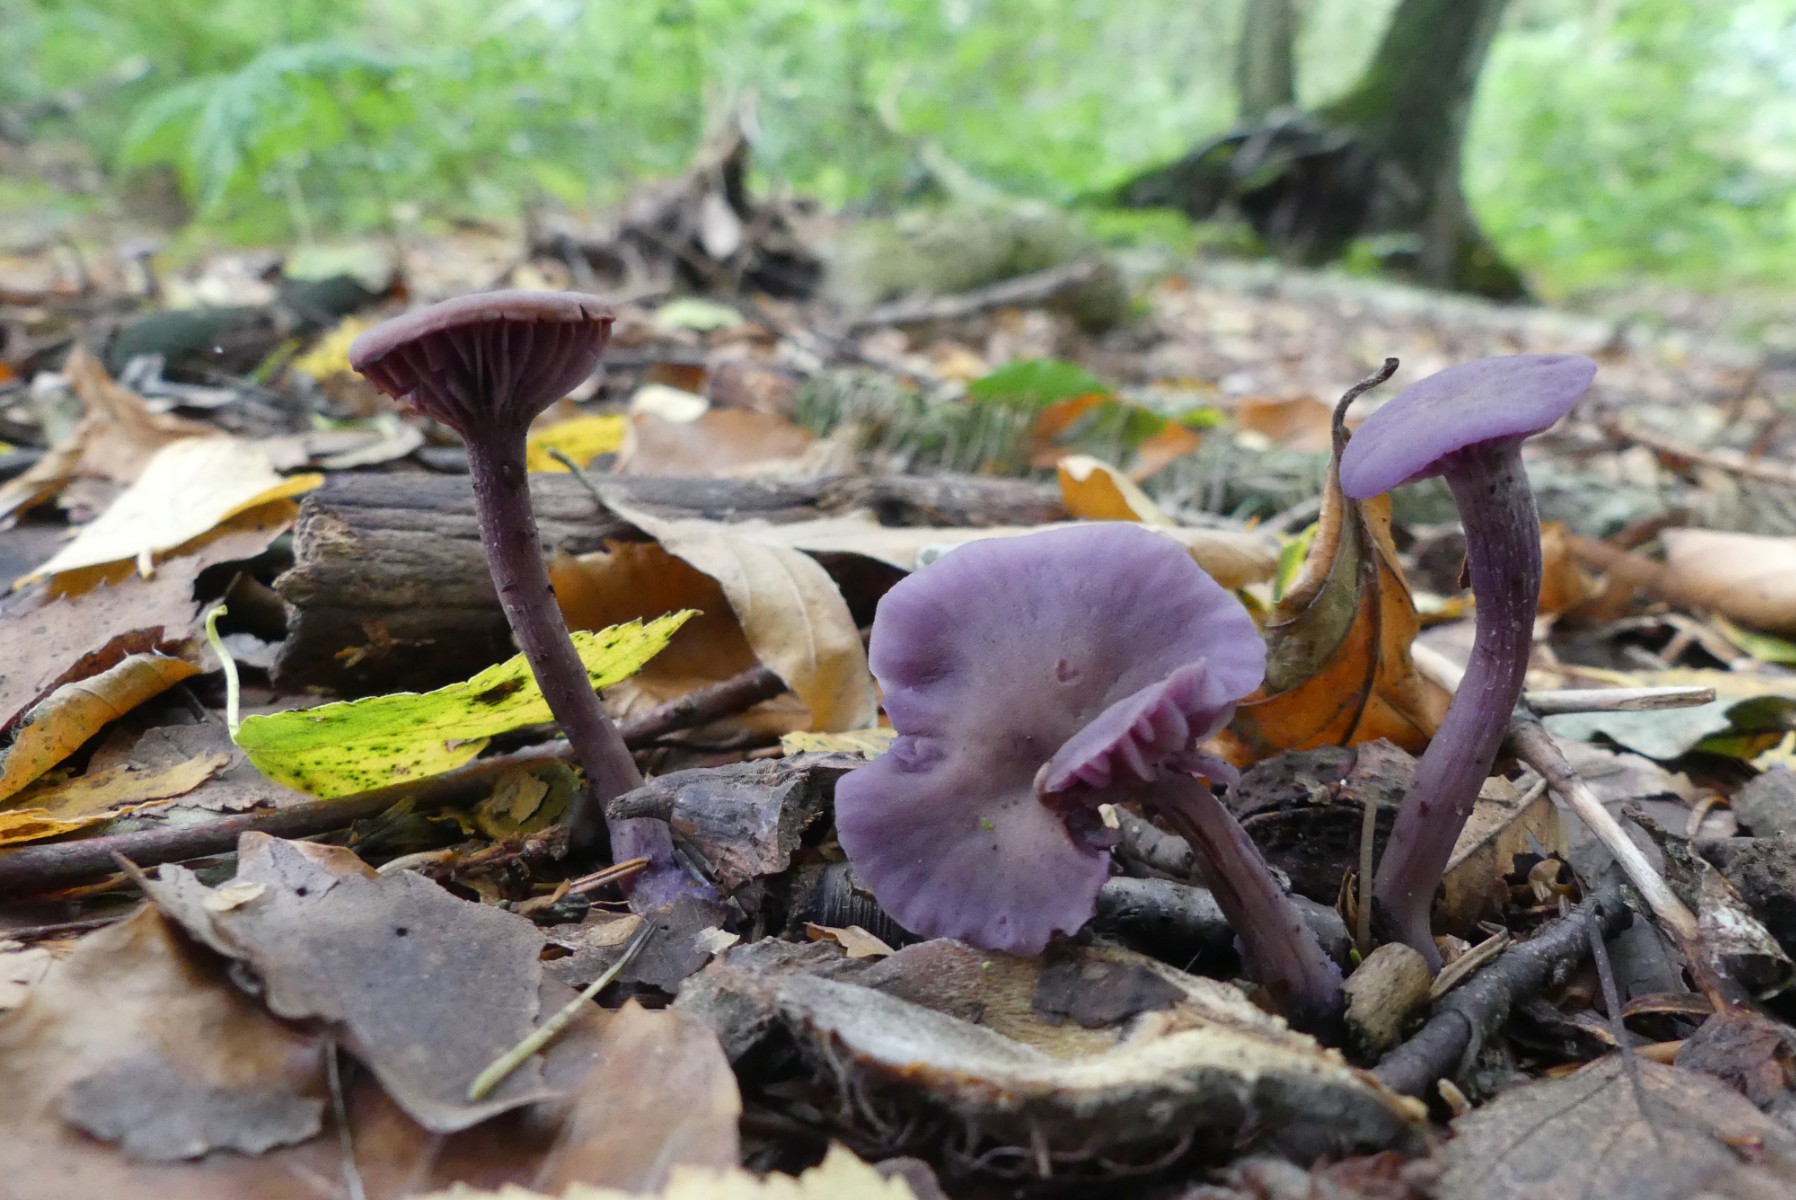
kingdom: Fungi
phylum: Basidiomycota
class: Agaricomycetes
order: Agaricales
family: Hydnangiaceae
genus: Laccaria
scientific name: Laccaria amethystina
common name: violet ametysthat
